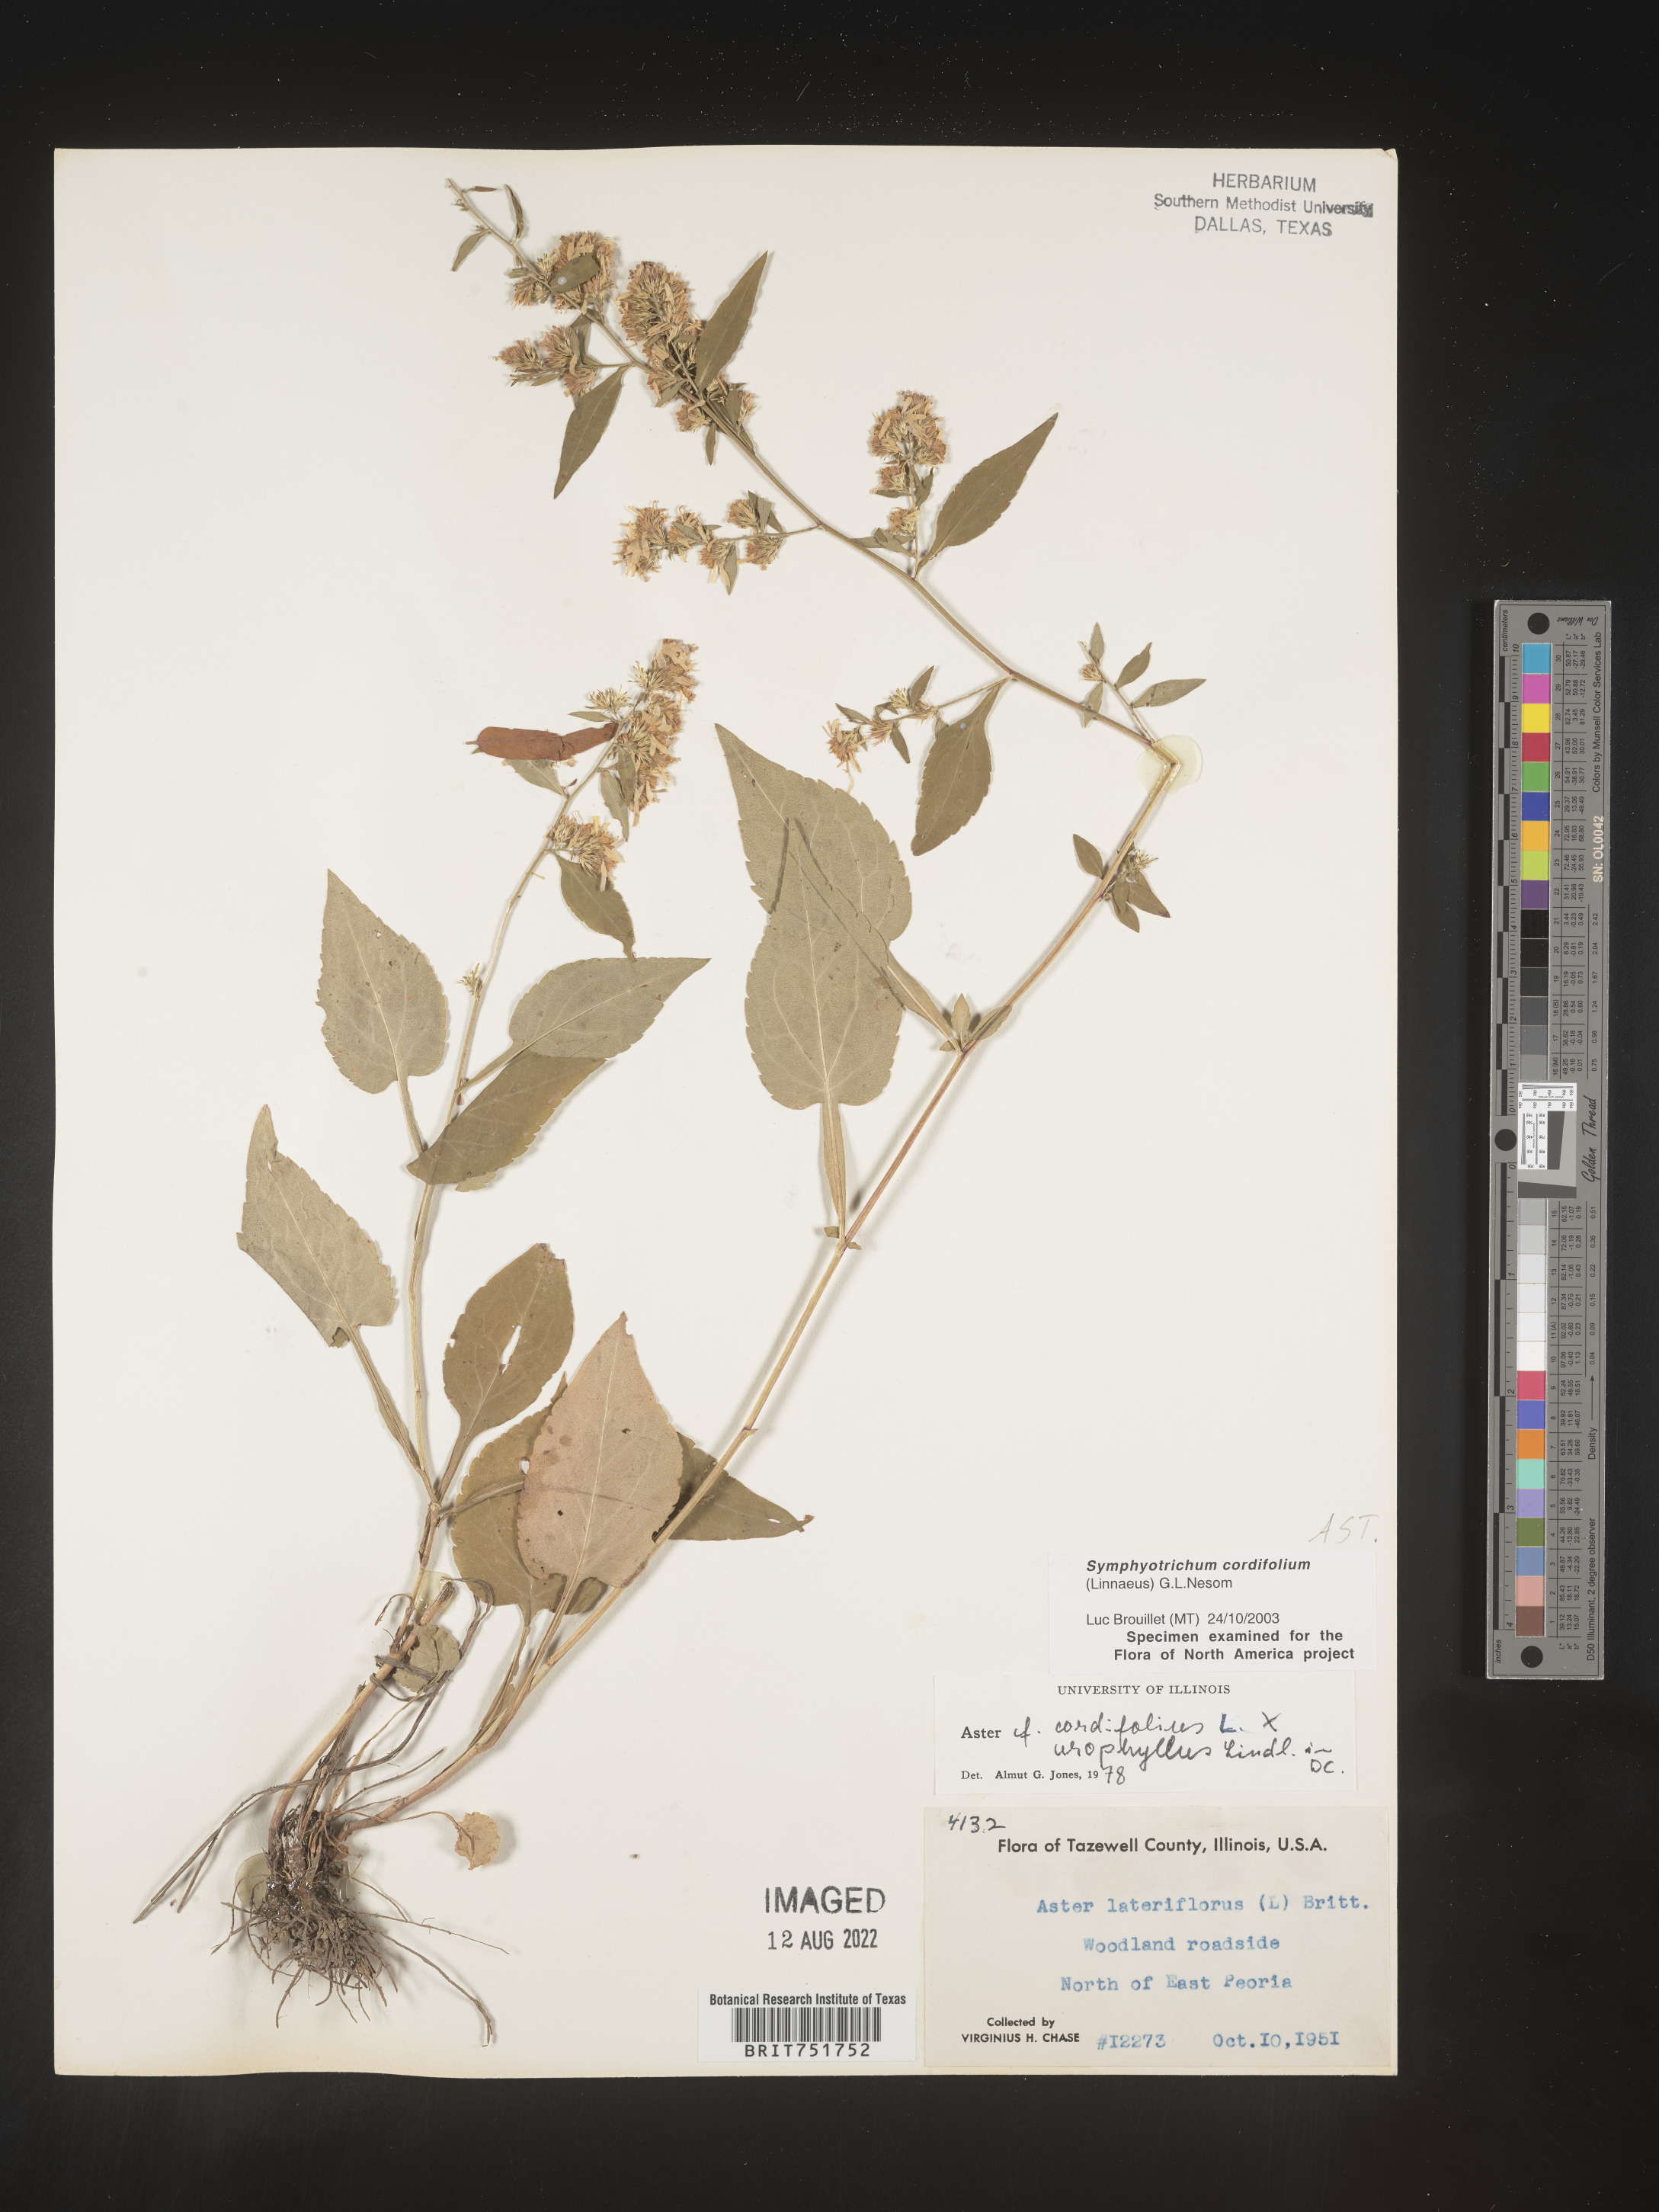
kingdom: Plantae
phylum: Tracheophyta
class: Magnoliopsida
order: Asterales
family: Asteraceae
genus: Symphyotrichum
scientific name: Symphyotrichum cordifolium
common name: Beeweed
